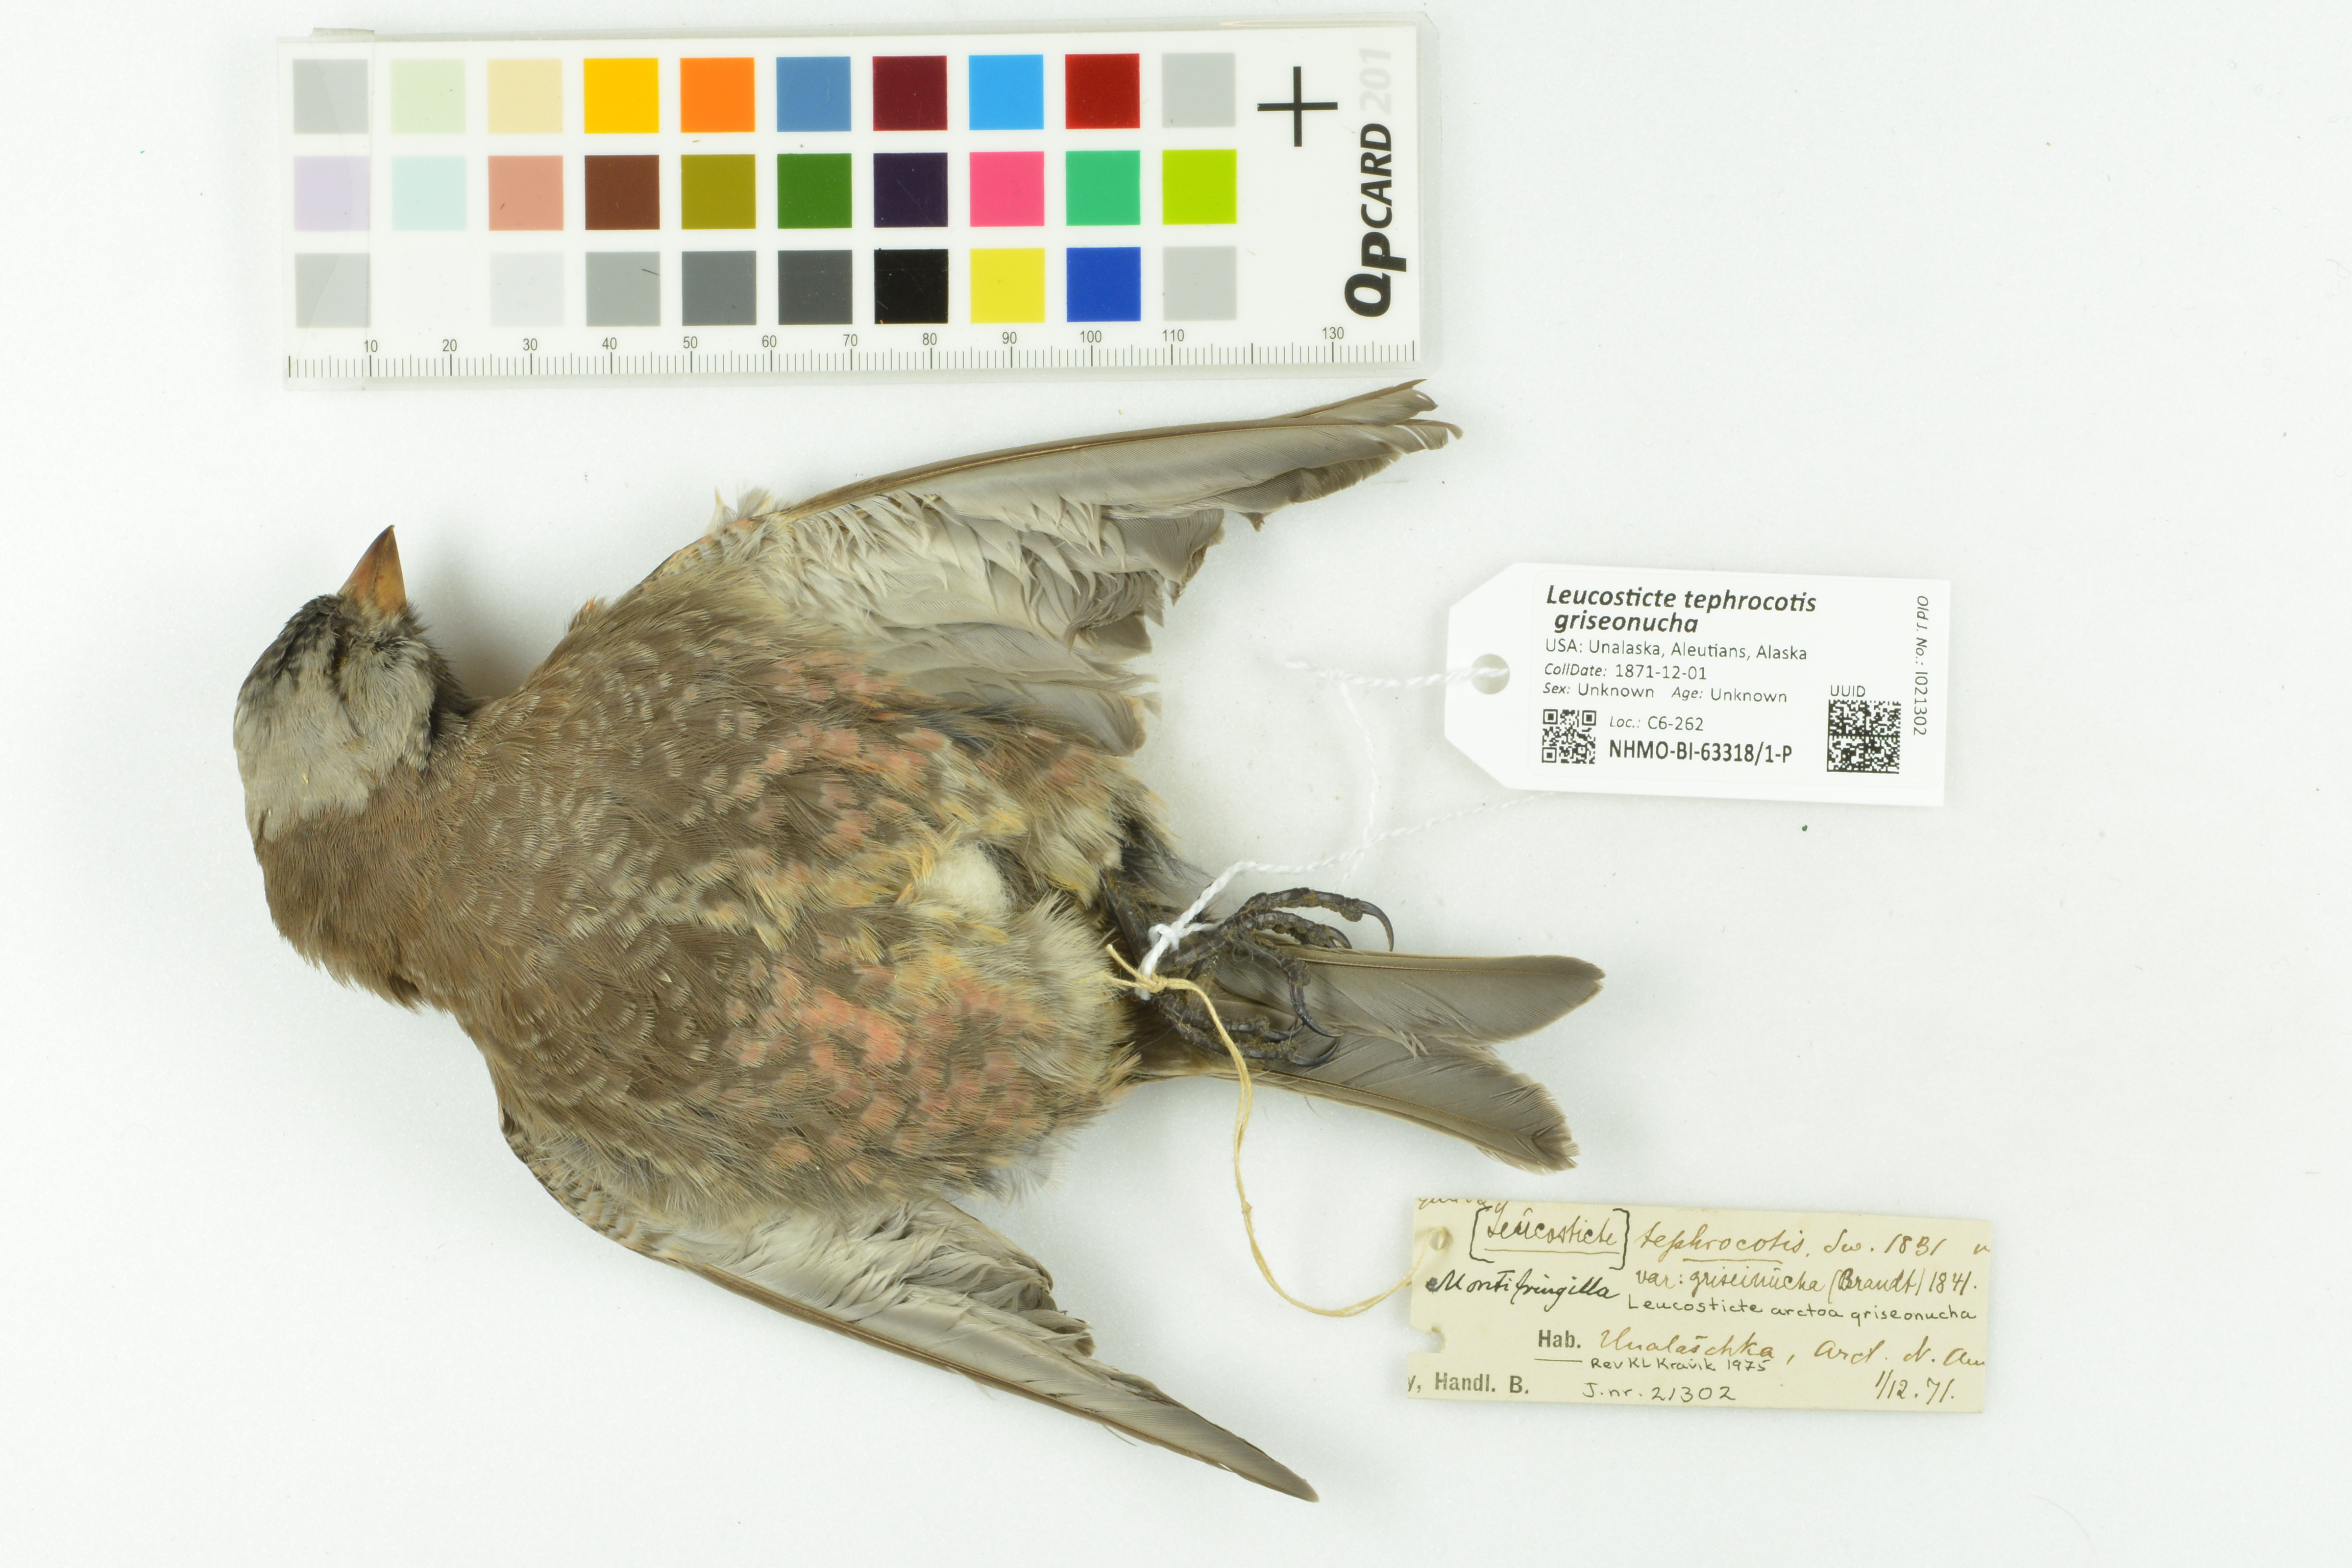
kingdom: Animalia
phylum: Chordata
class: Aves
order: Passeriformes
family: Fringillidae
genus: Leucosticte
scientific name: Leucosticte tephrocotis
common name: Gray-crowned rosy-finch
